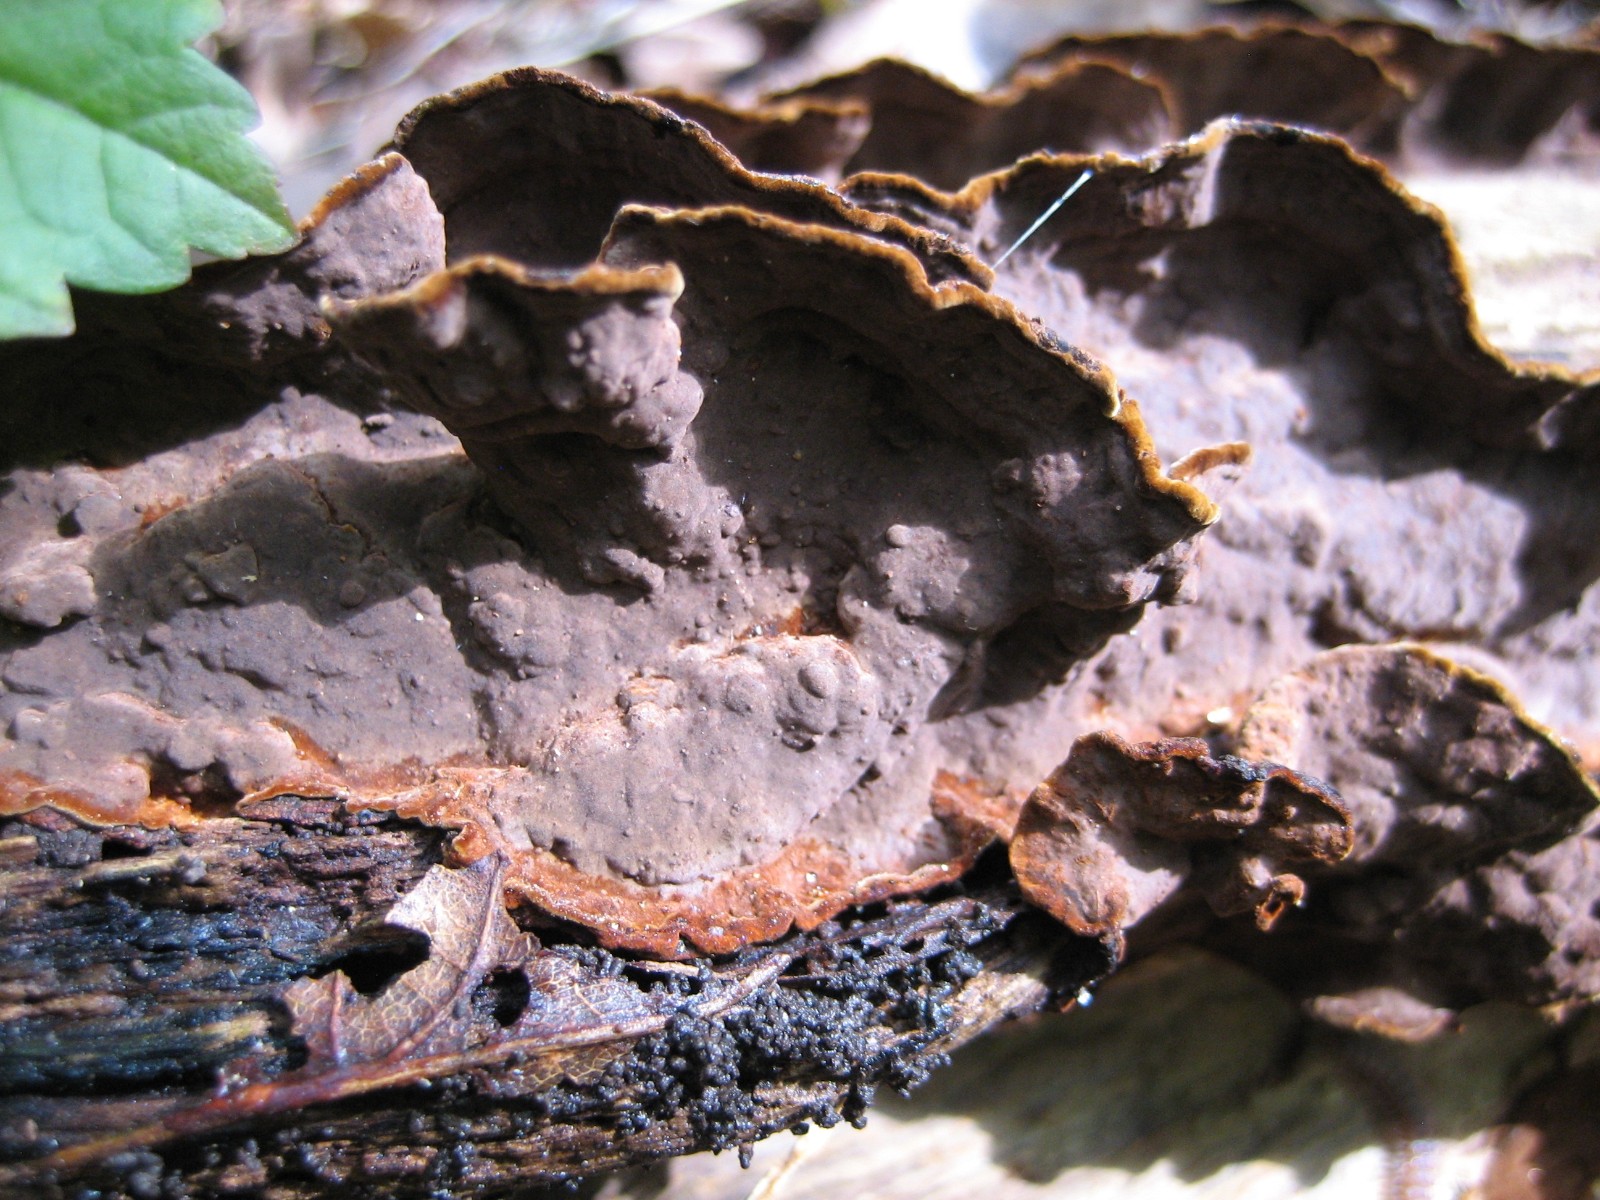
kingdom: Fungi
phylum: Basidiomycota
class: Agaricomycetes
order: Hymenochaetales
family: Hymenochaetaceae
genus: Hymenochaete
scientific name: Hymenochaete rubiginosa
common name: stiv ruslædersvamp
